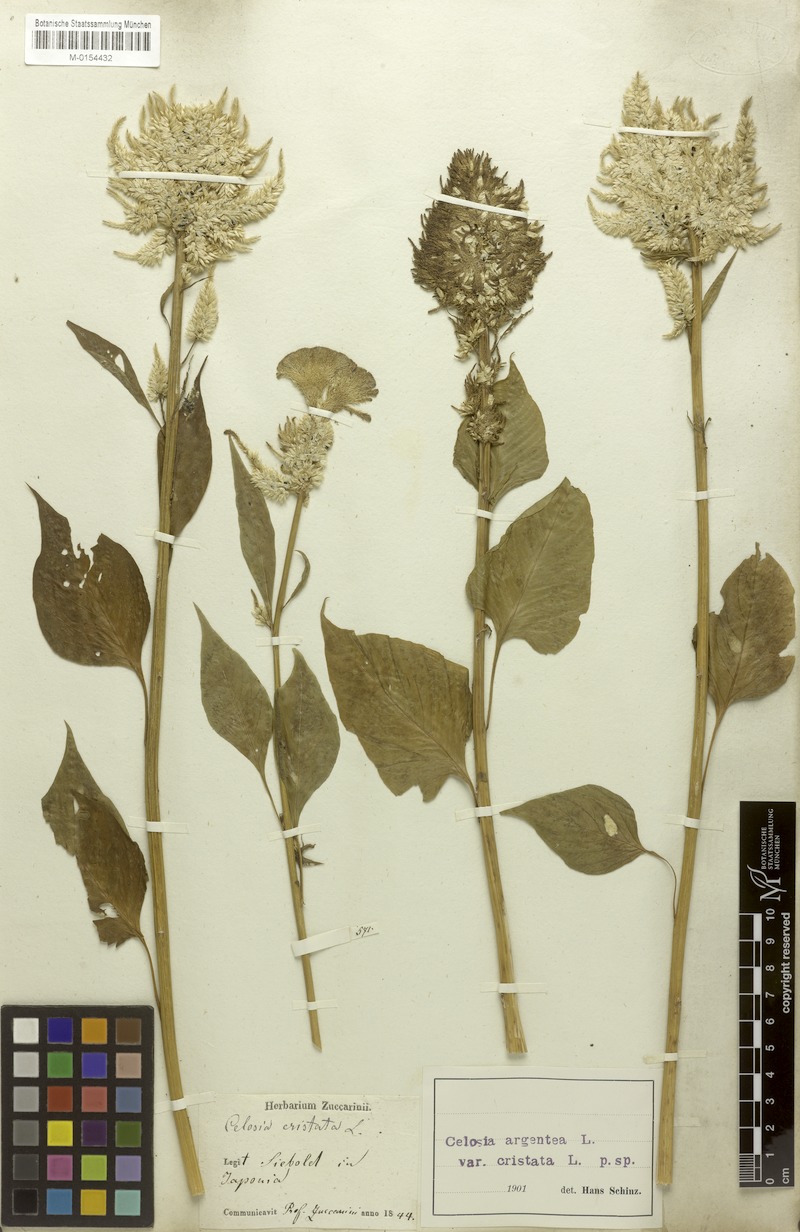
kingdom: Plantae
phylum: Tracheophyta
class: Magnoliopsida
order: Caryophyllales
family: Amaranthaceae
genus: Celosia
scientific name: Celosia argentea
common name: Feather cockscomb
